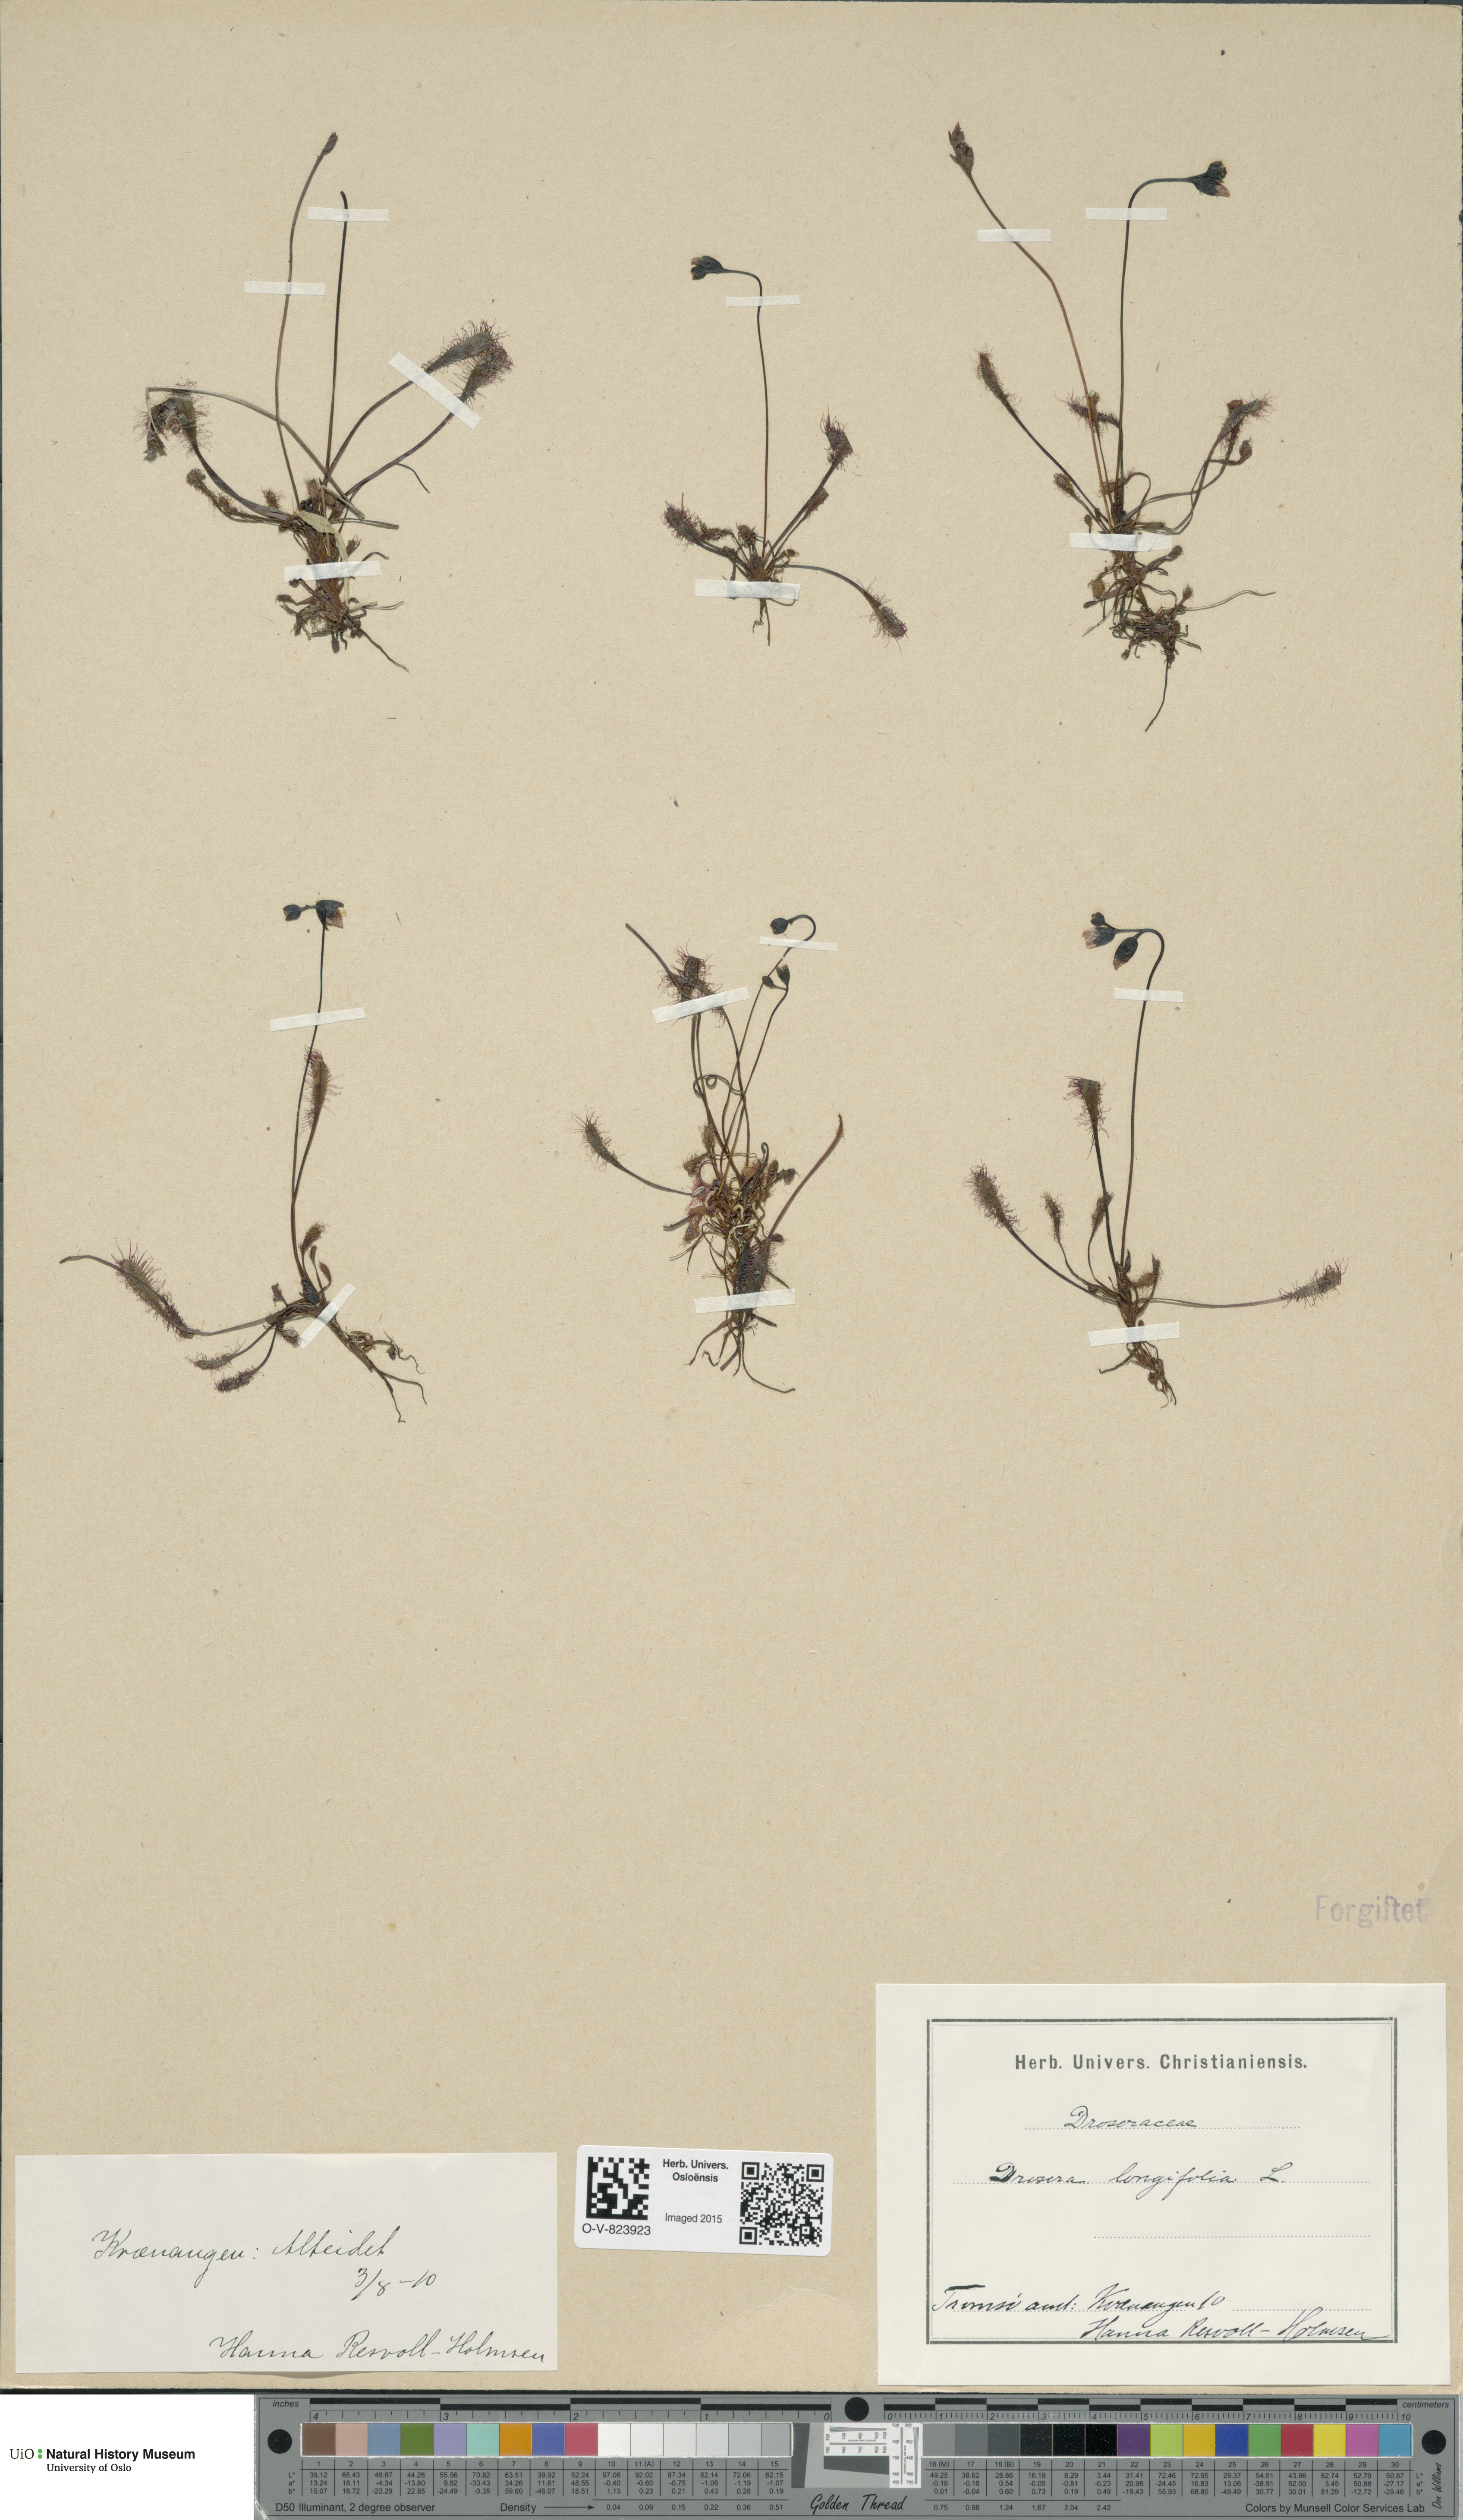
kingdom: Plantae
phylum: Tracheophyta
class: Magnoliopsida
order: Caryophyllales
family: Droseraceae
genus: Drosera
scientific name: Drosera anglica
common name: Great sundew
